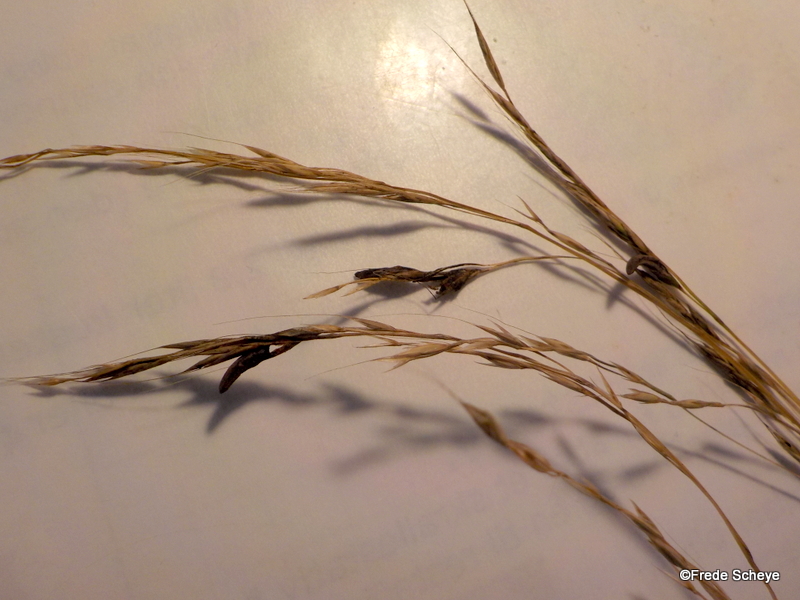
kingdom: Fungi
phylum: Ascomycota
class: Sordariomycetes
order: Hypocreales
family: Clavicipitaceae
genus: Claviceps
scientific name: Claviceps purpurea
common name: almindelig meldrøjer
